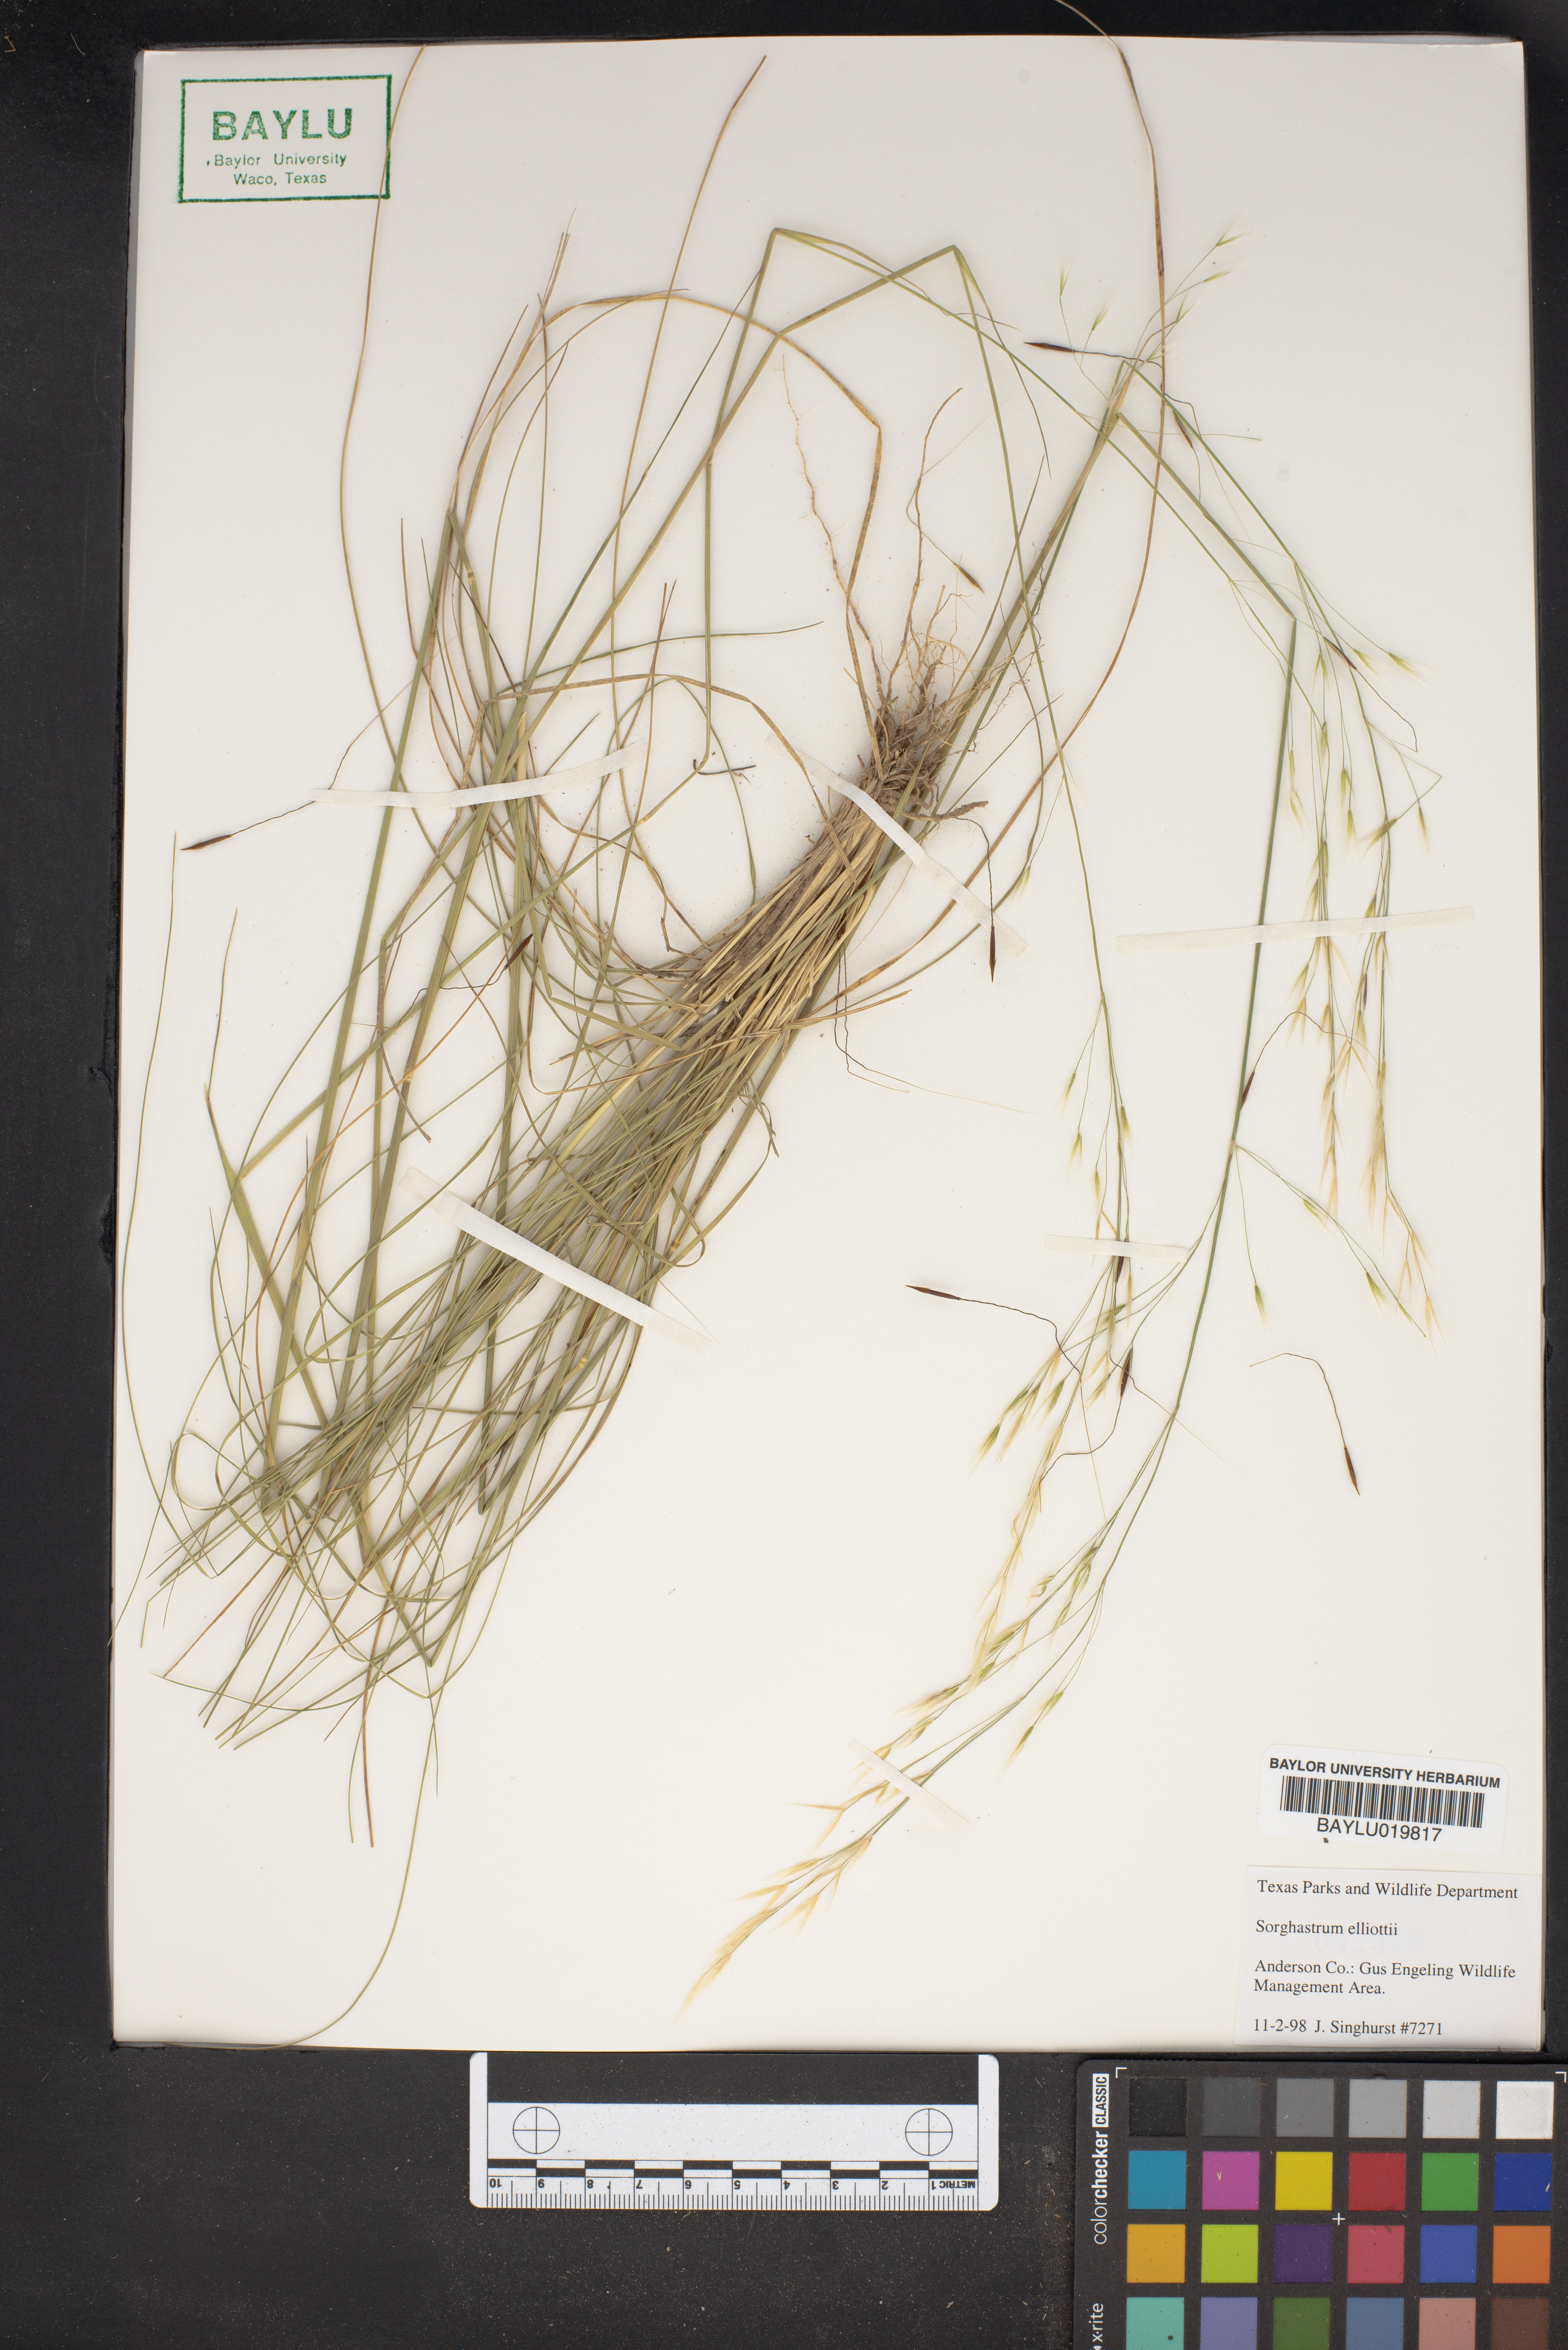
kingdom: Plantae
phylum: Tracheophyta
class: Liliopsida
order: Poales
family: Poaceae
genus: Sorghastrum
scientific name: Sorghastrum elliottii
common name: Slender indian grass
